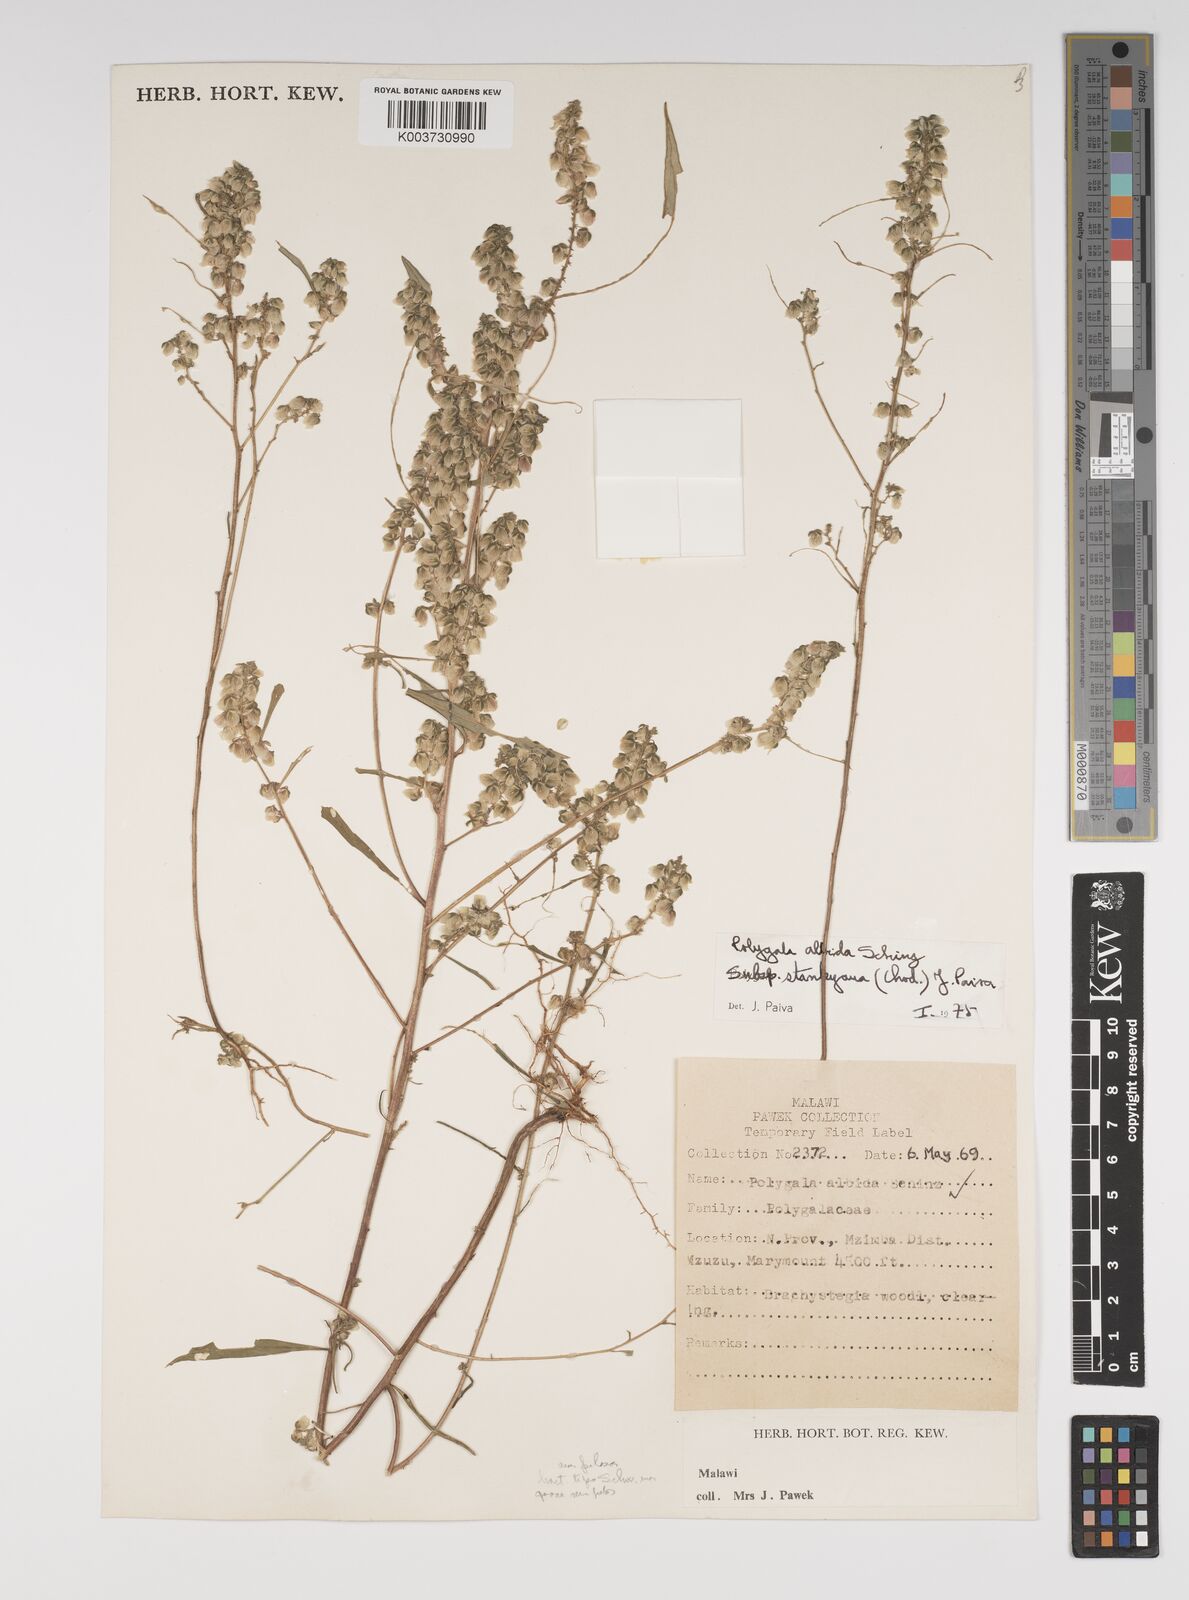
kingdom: Plantae
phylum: Tracheophyta
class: Magnoliopsida
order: Fabales
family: Polygalaceae
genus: Polygala
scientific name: Polygala albida
